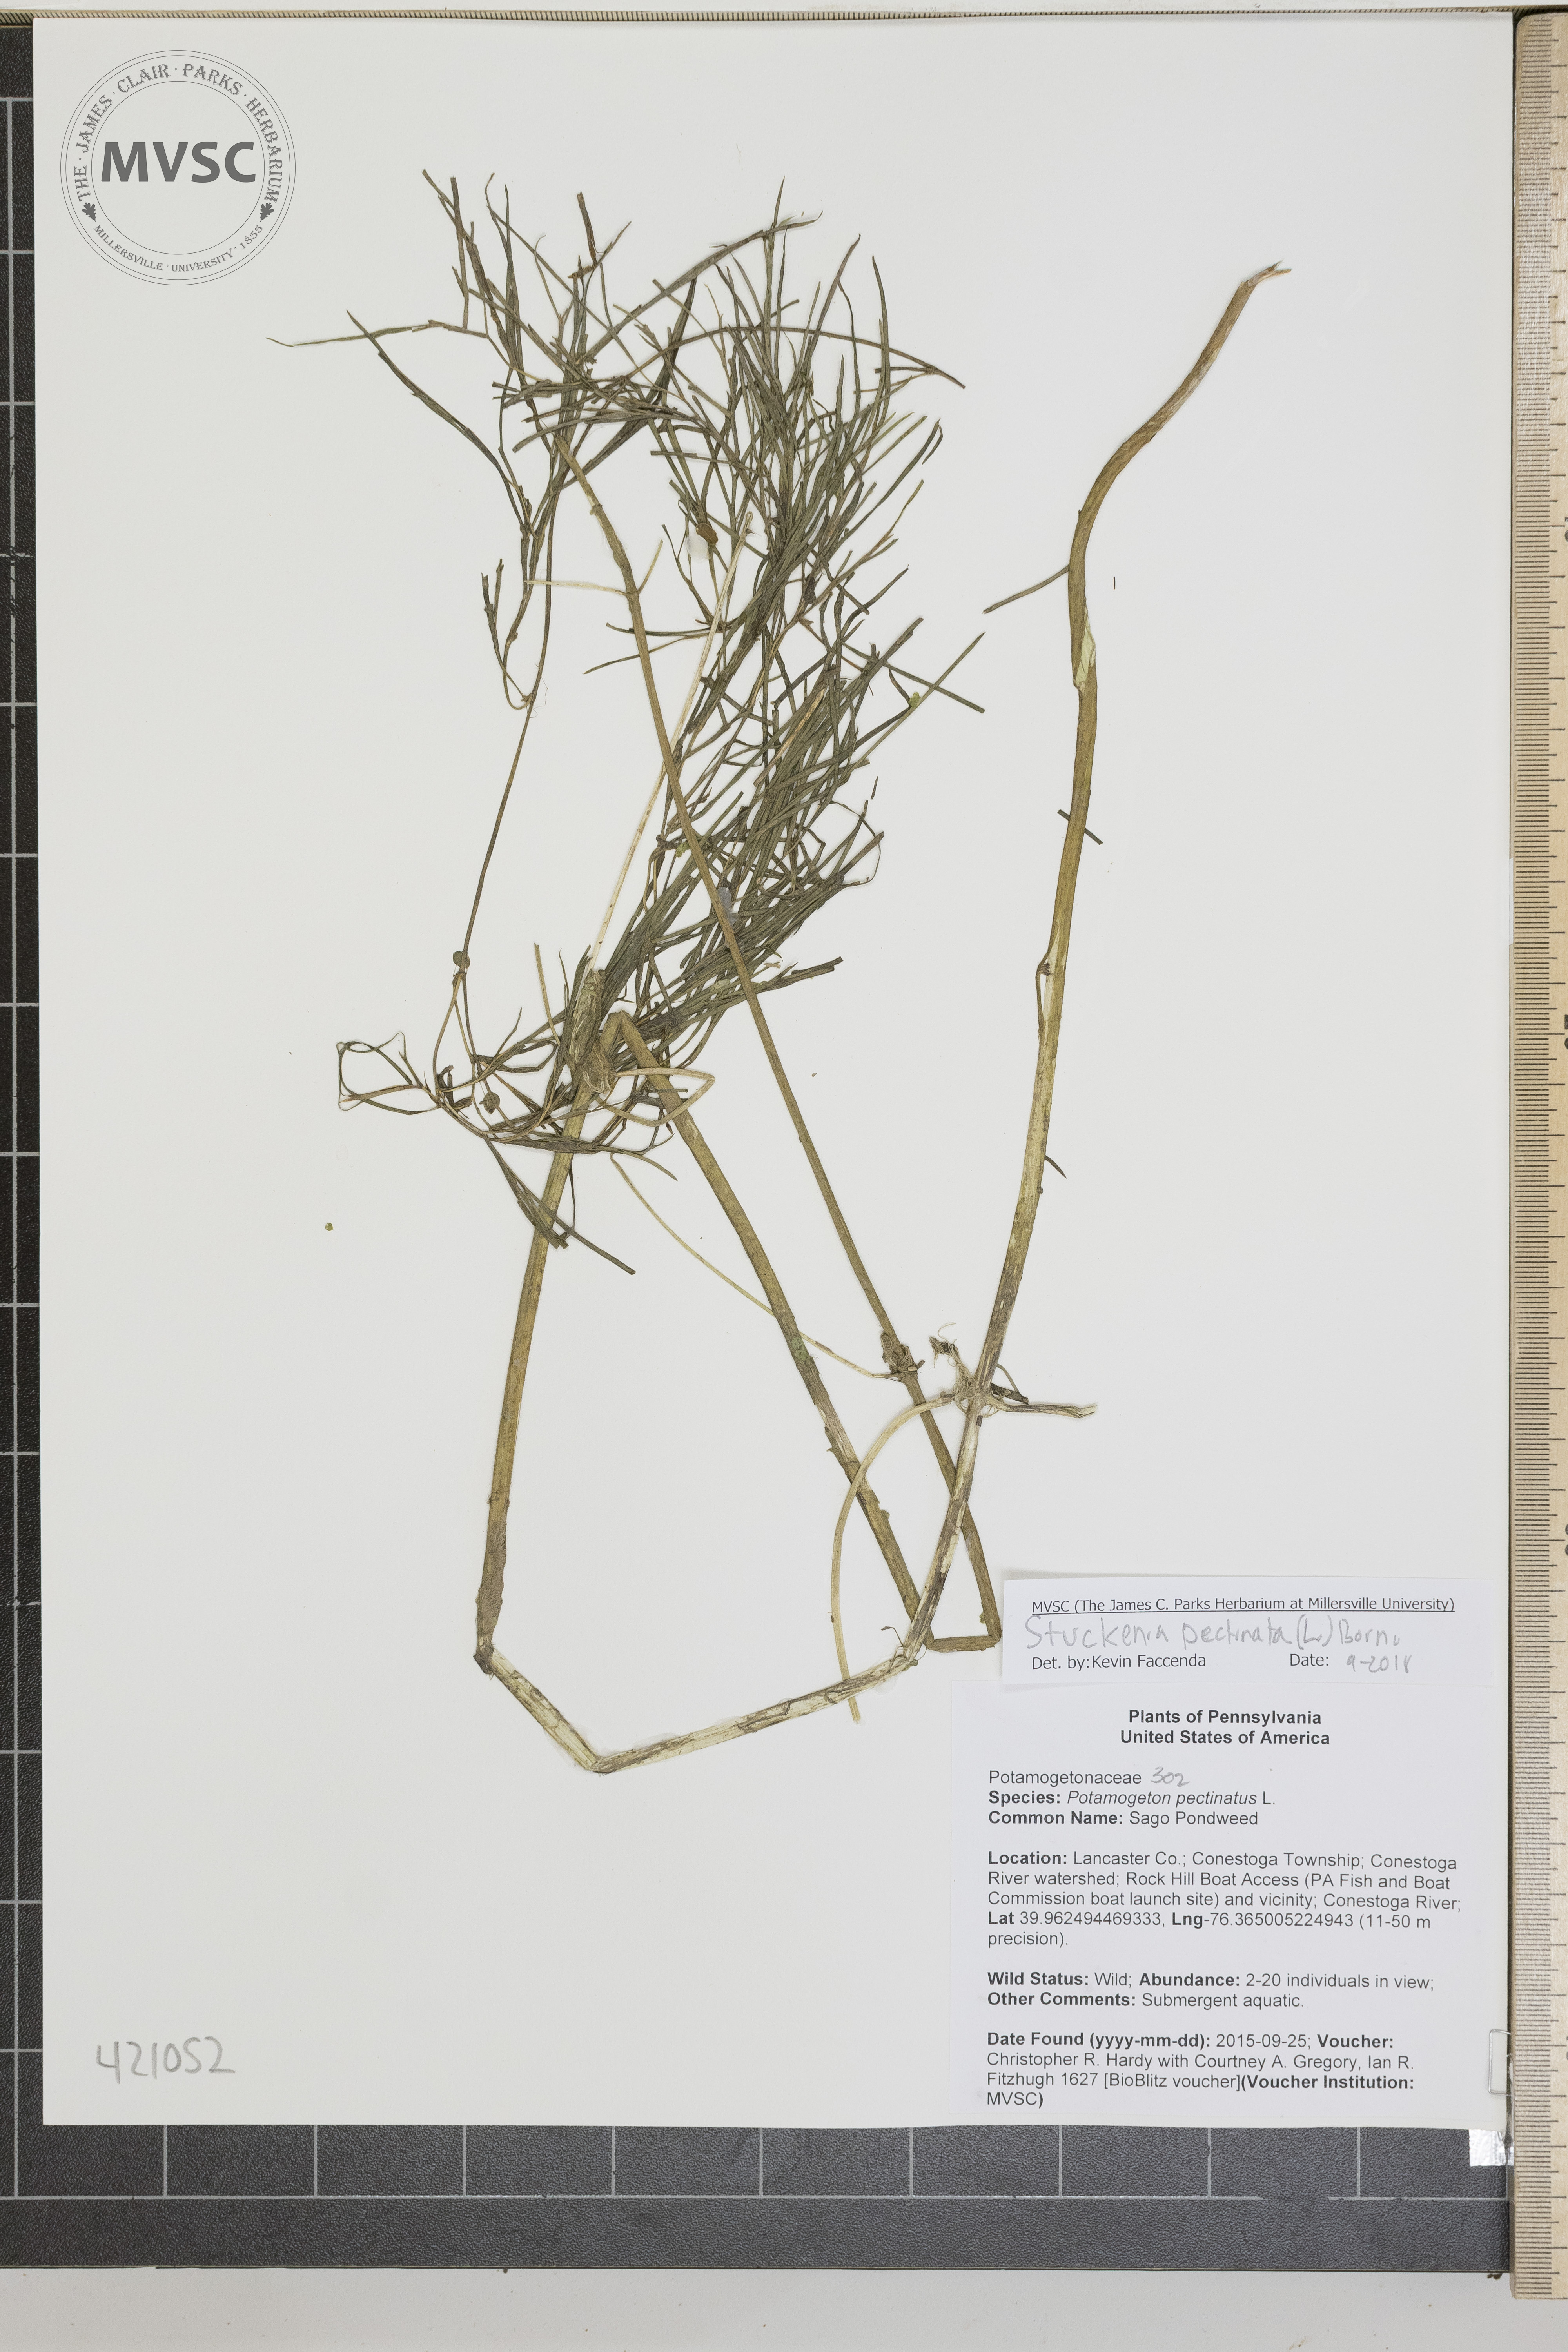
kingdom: Plantae
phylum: Tracheophyta
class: Liliopsida
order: Alismatales
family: Potamogetonaceae
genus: Stuckenia
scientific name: Stuckenia pectinata
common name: Sago Pondweed
